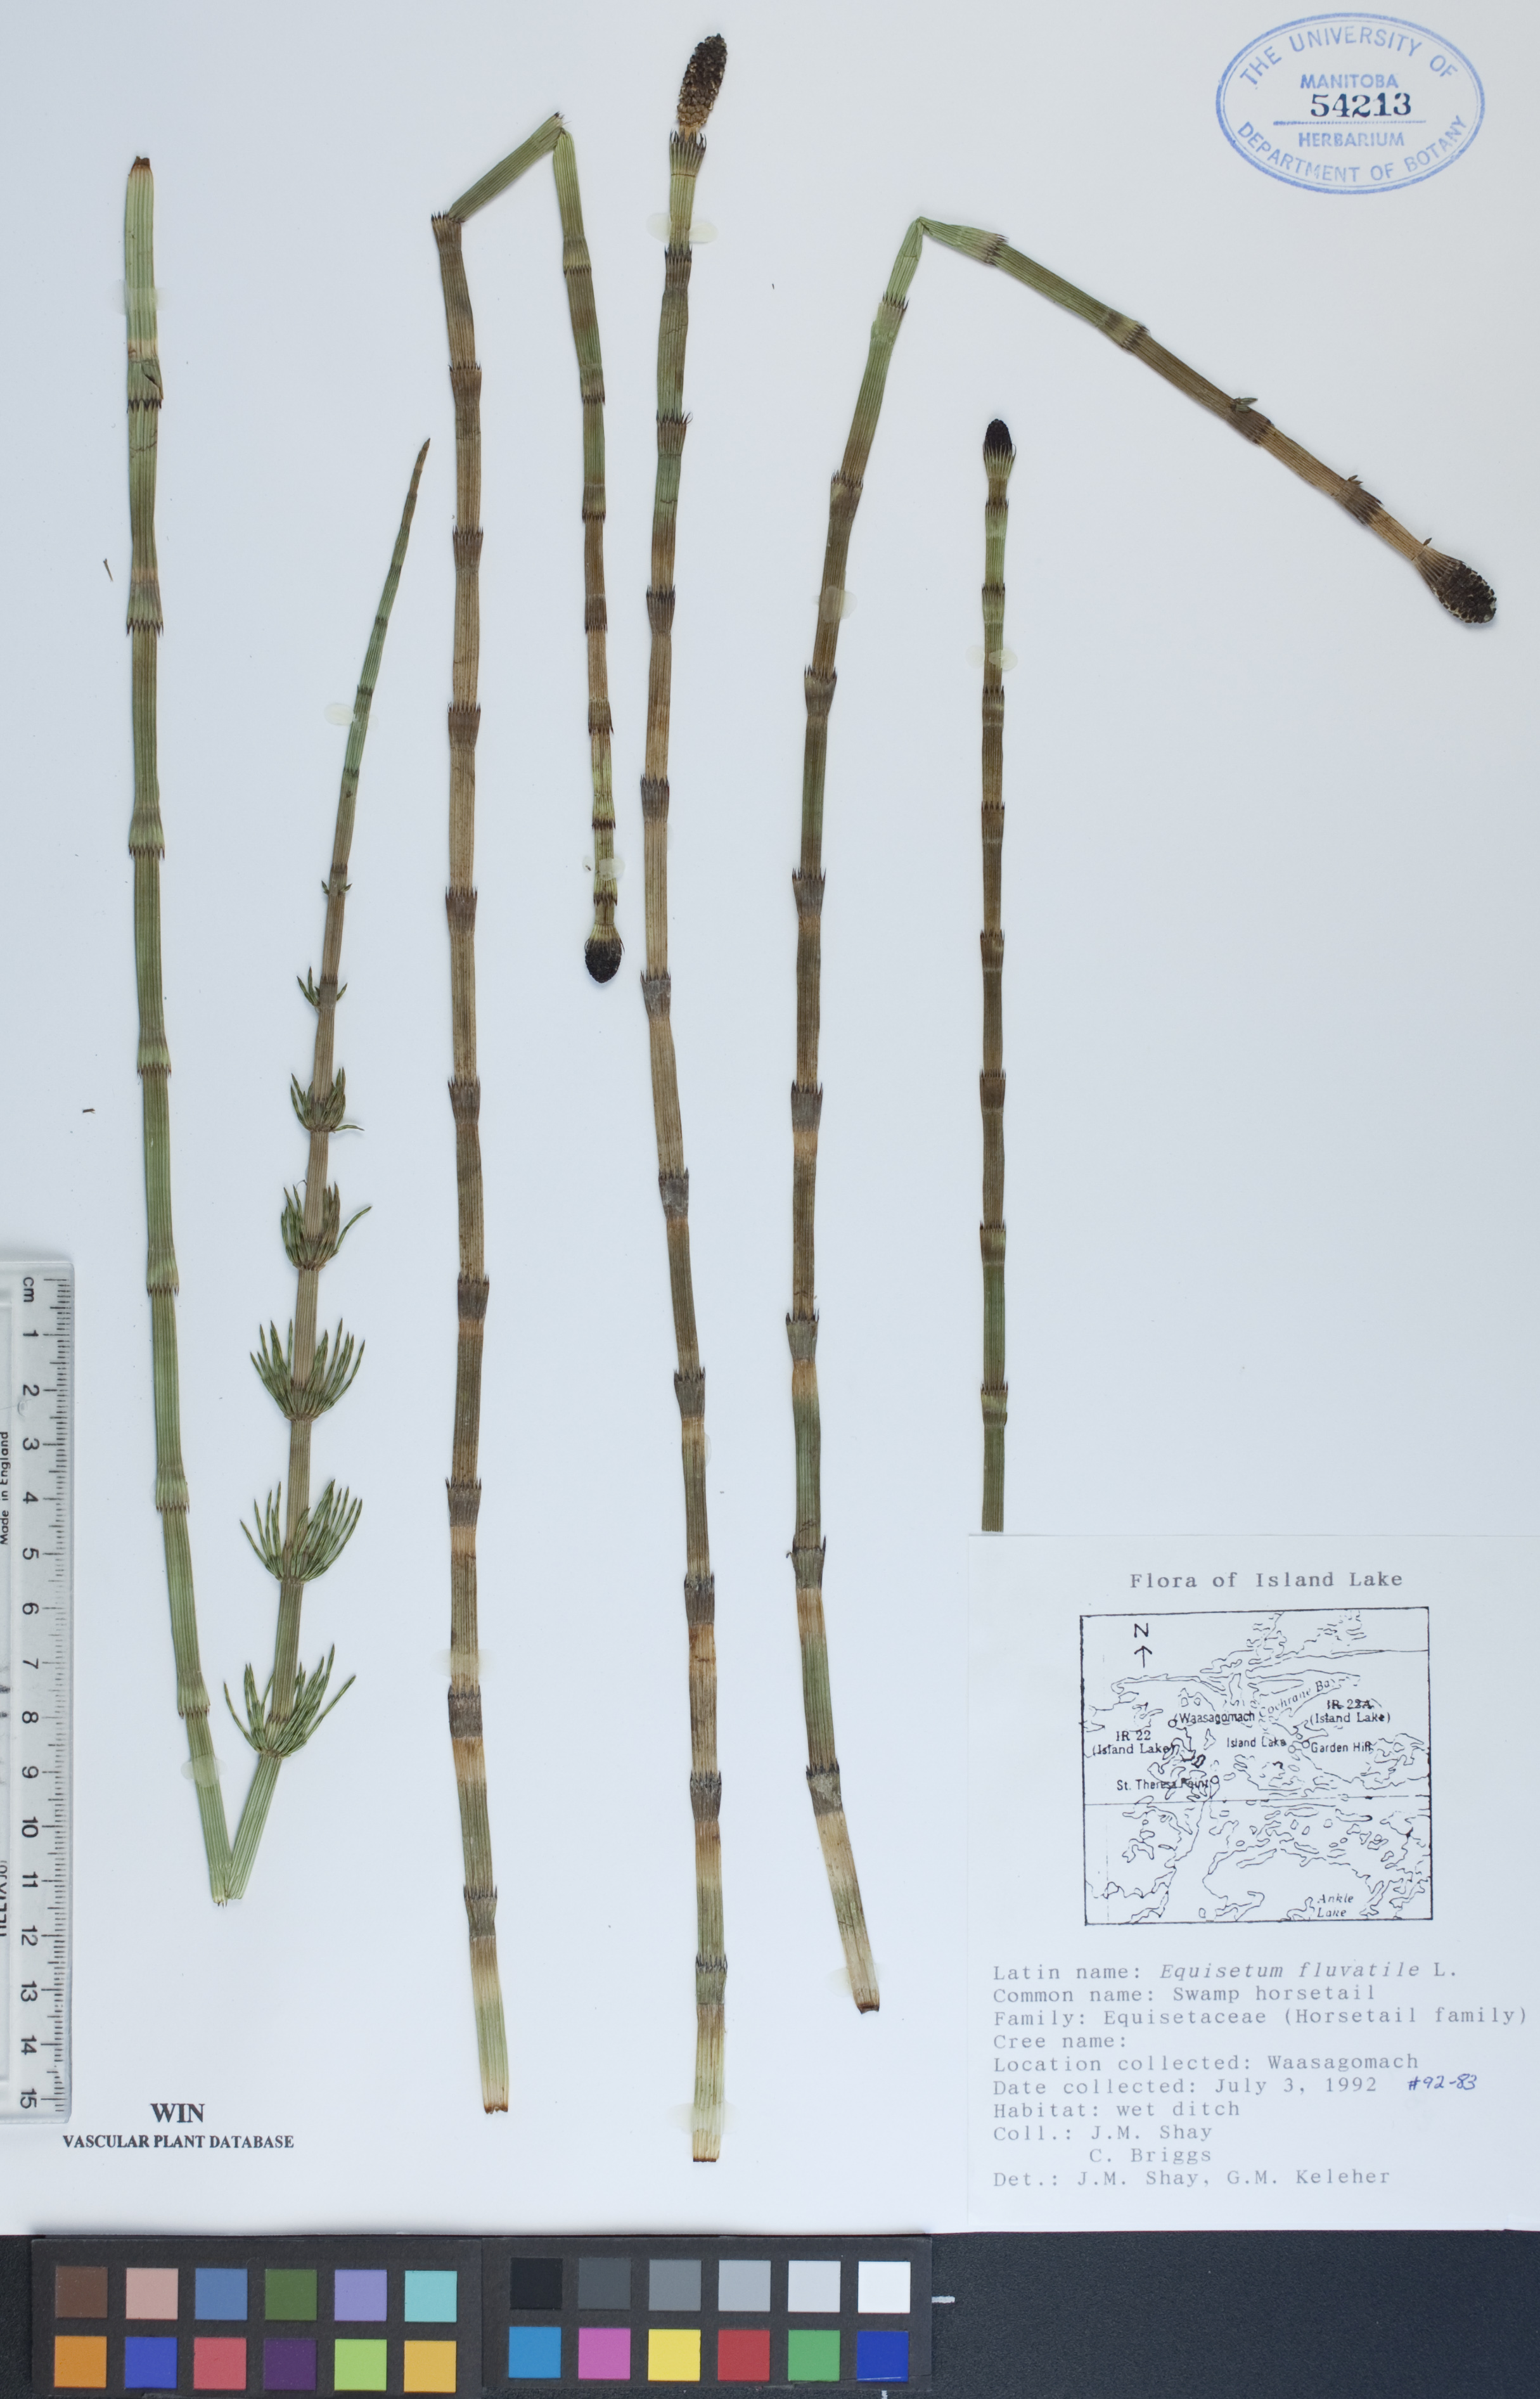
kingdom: Plantae
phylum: Tracheophyta
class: Polypodiopsida
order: Equisetales
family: Equisetaceae
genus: Equisetum
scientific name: Equisetum fluviatile
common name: Water horsetail
